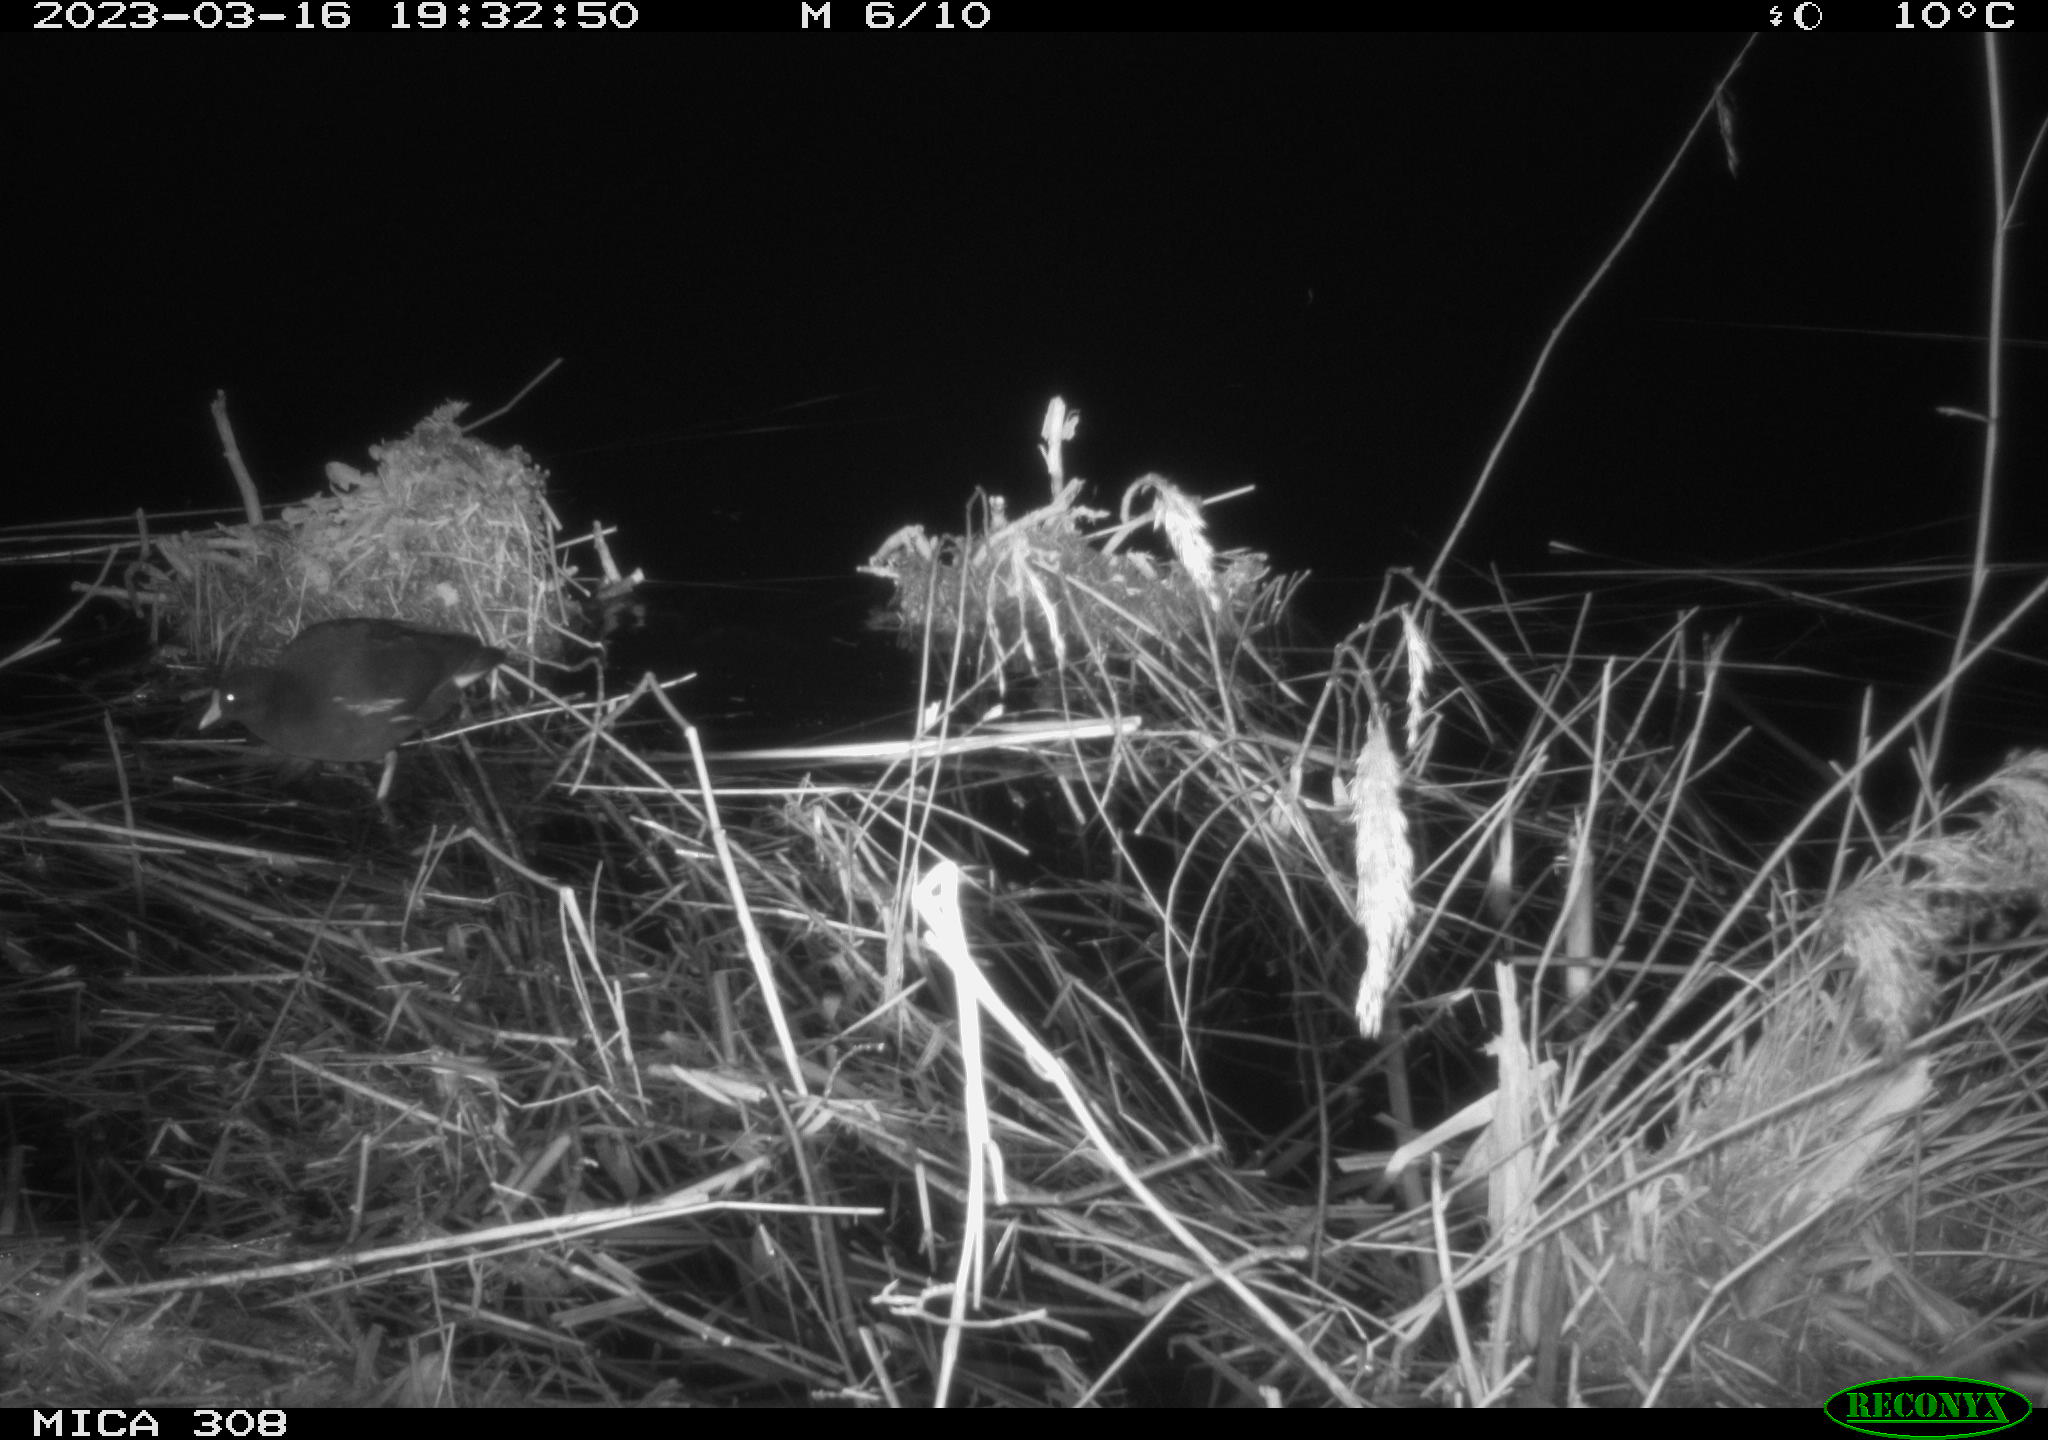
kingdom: Animalia
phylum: Chordata
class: Aves
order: Gruiformes
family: Rallidae
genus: Gallinula
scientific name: Gallinula chloropus
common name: Common moorhen
